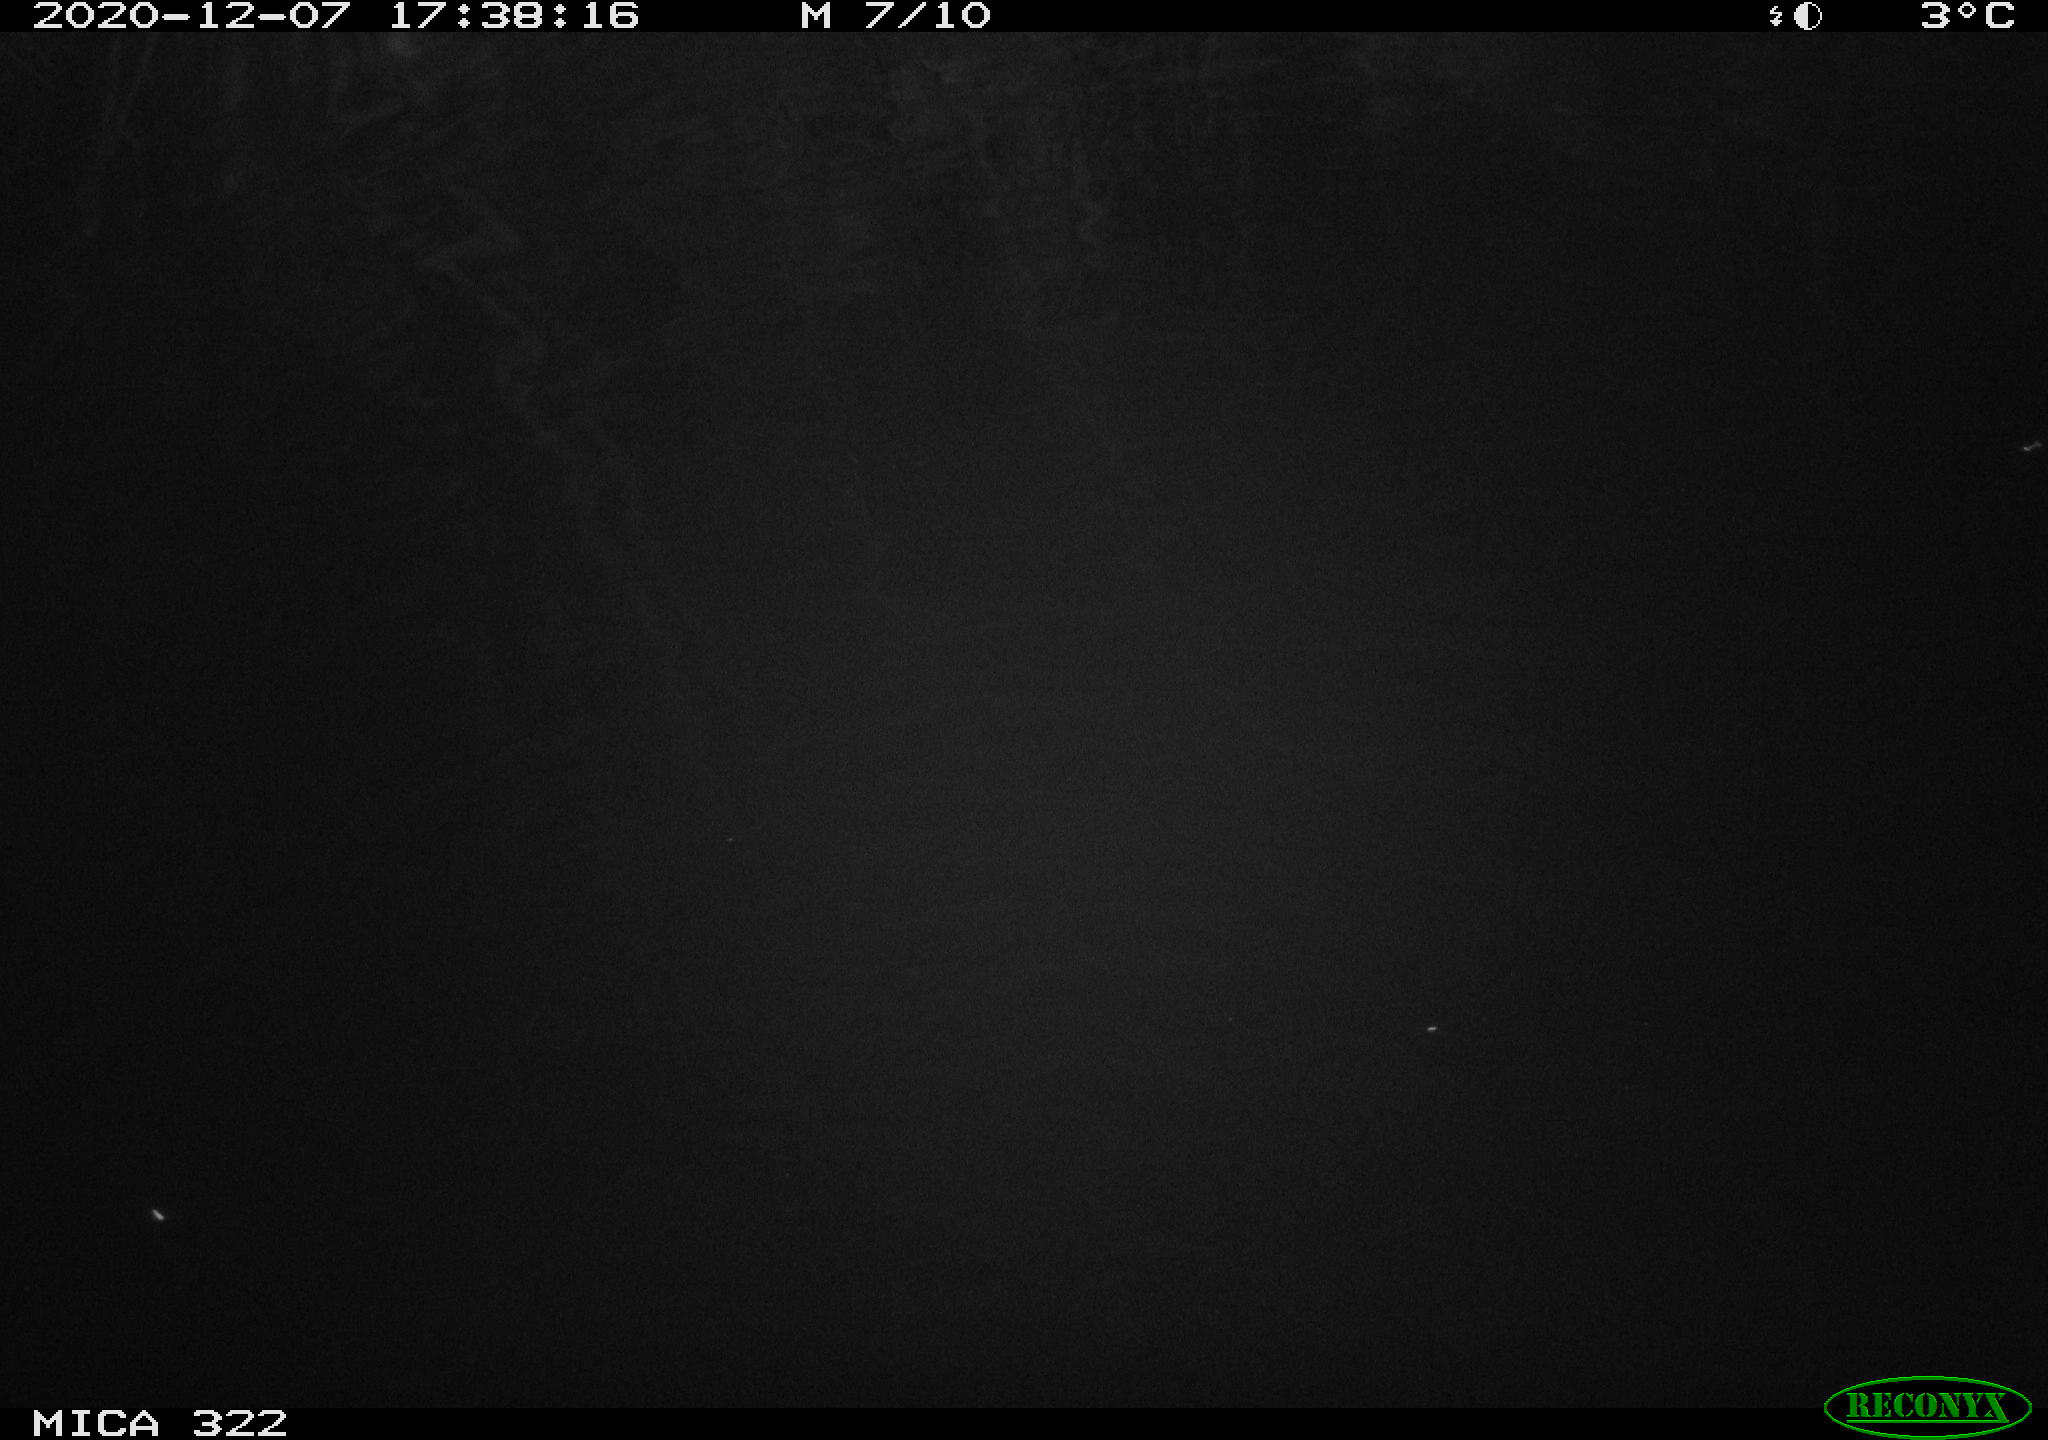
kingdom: Animalia
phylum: Chordata
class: Mammalia
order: Rodentia
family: Muridae
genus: Rattus
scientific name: Rattus norvegicus
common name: Brown rat
